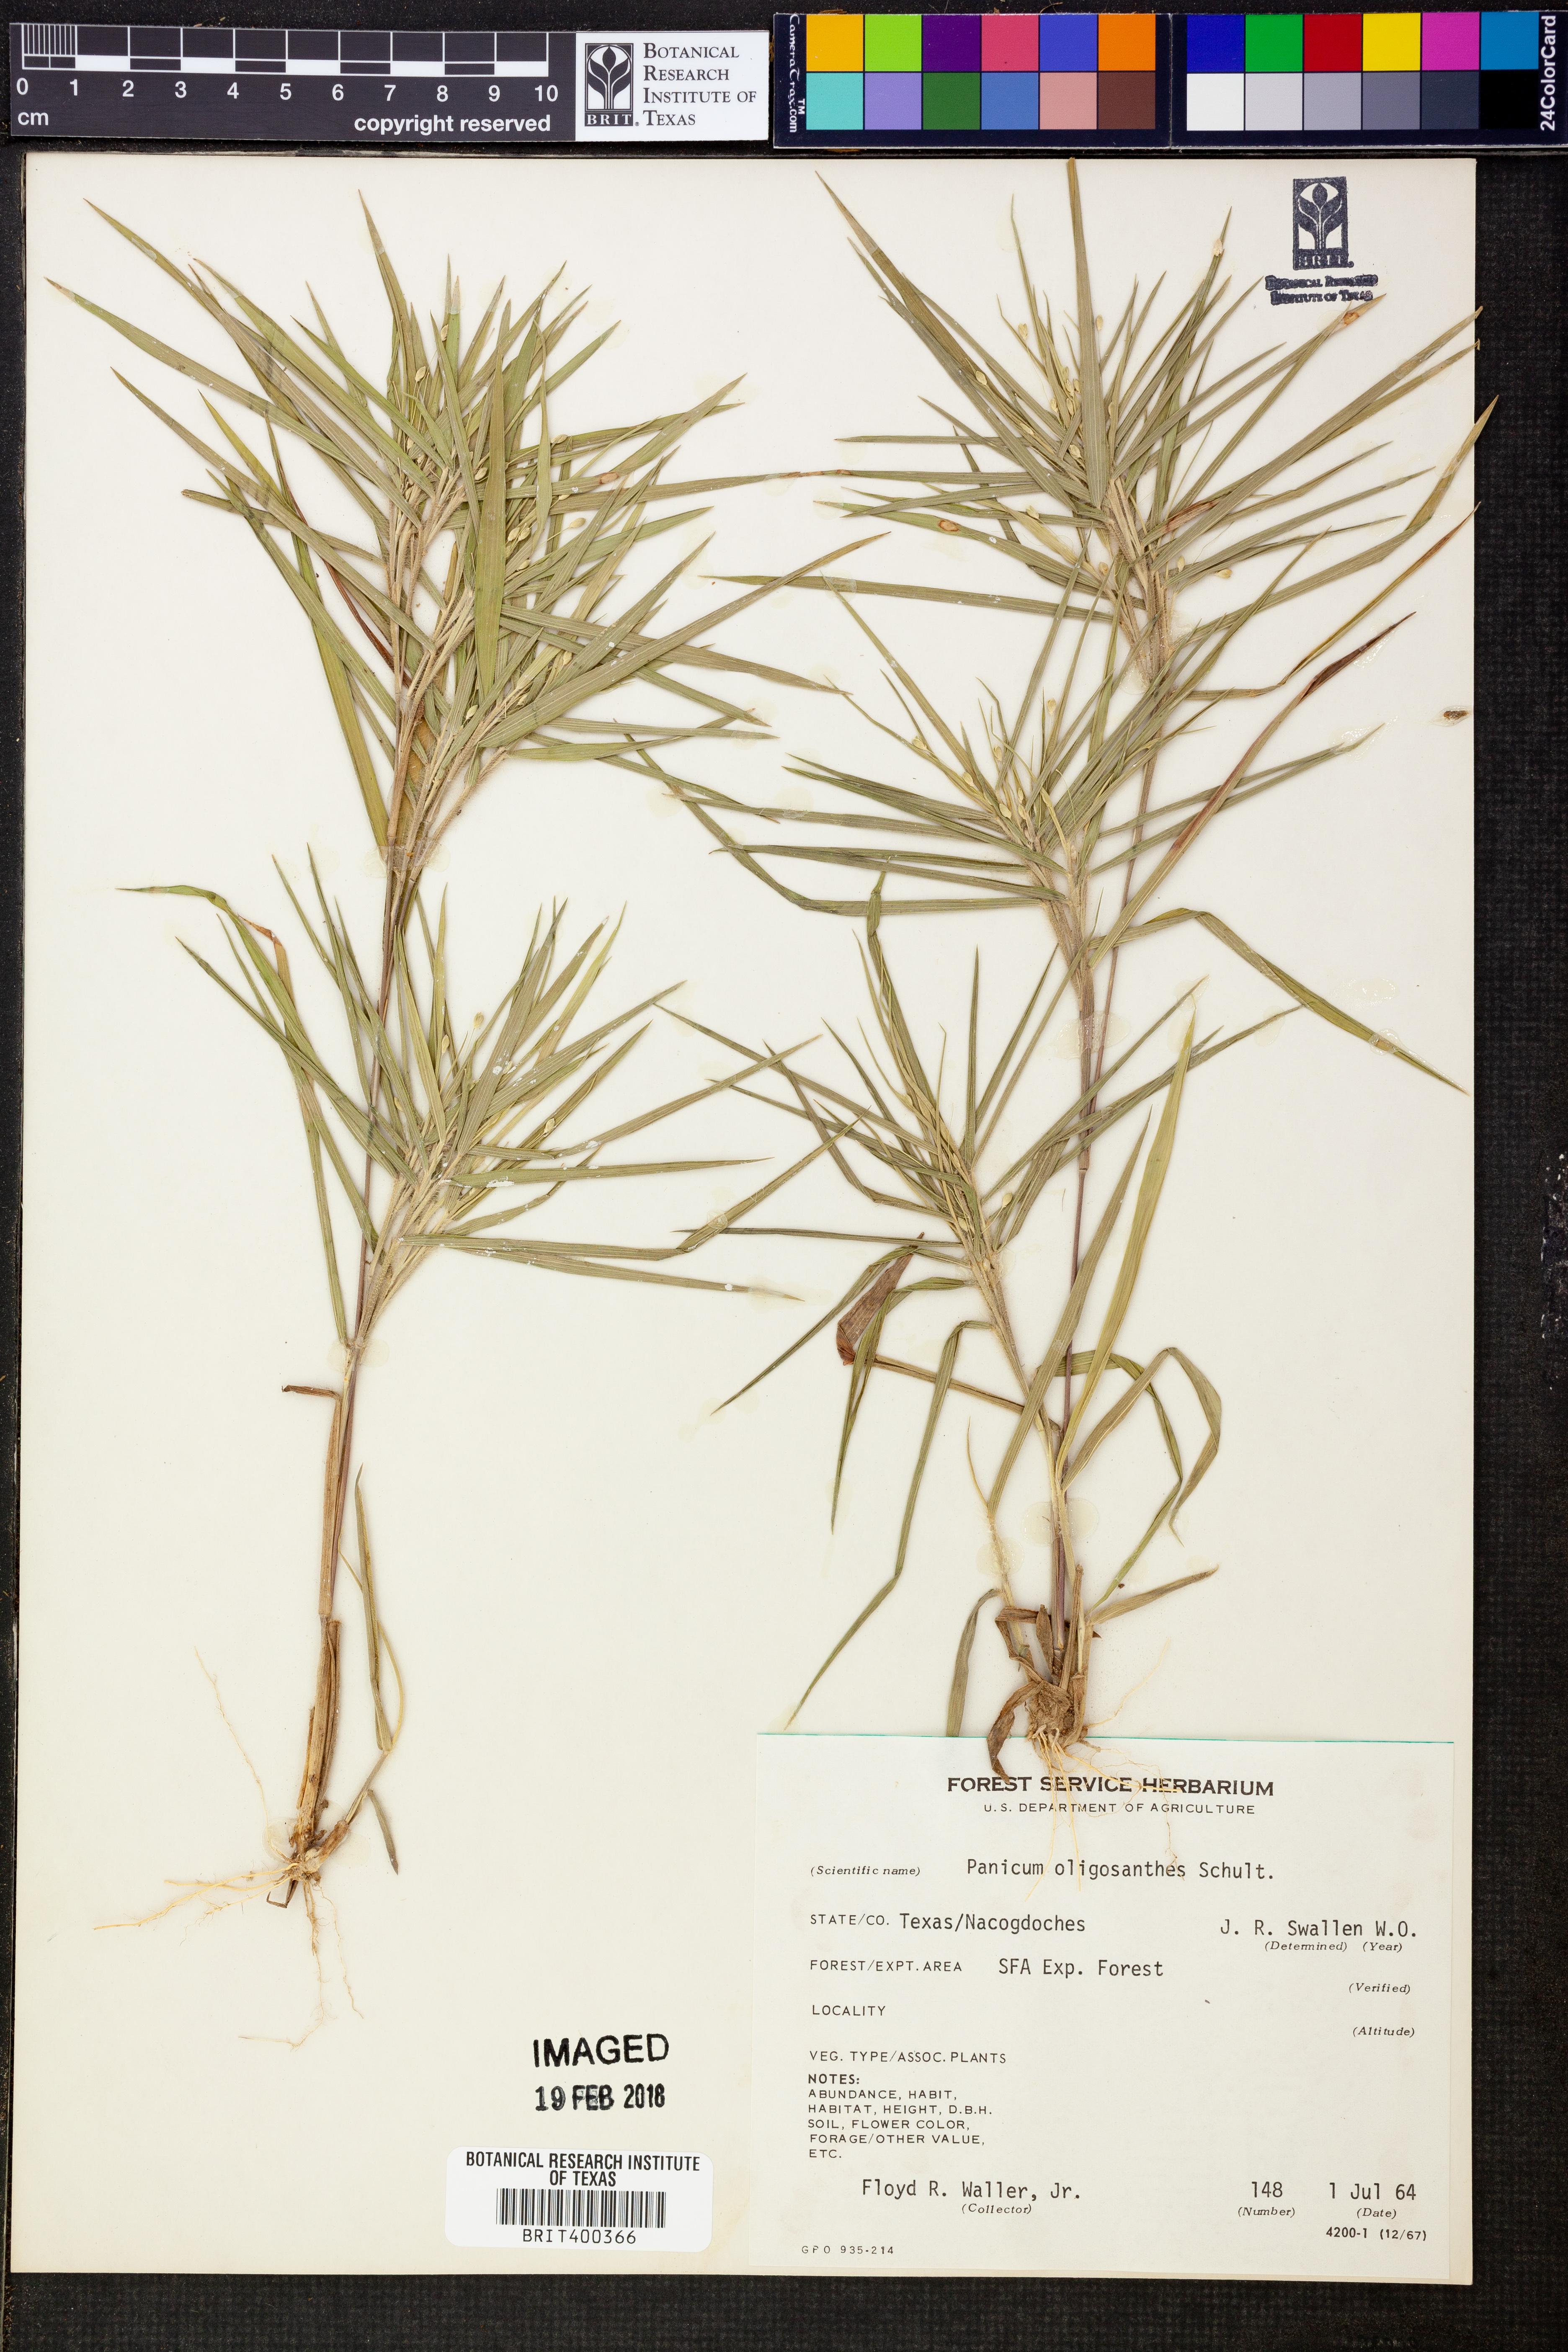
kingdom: Plantae
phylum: Tracheophyta
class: Liliopsida
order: Poales
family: Poaceae
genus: Dichanthelium
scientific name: Dichanthelium oligosanthes
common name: Few-anther obscuregrass
